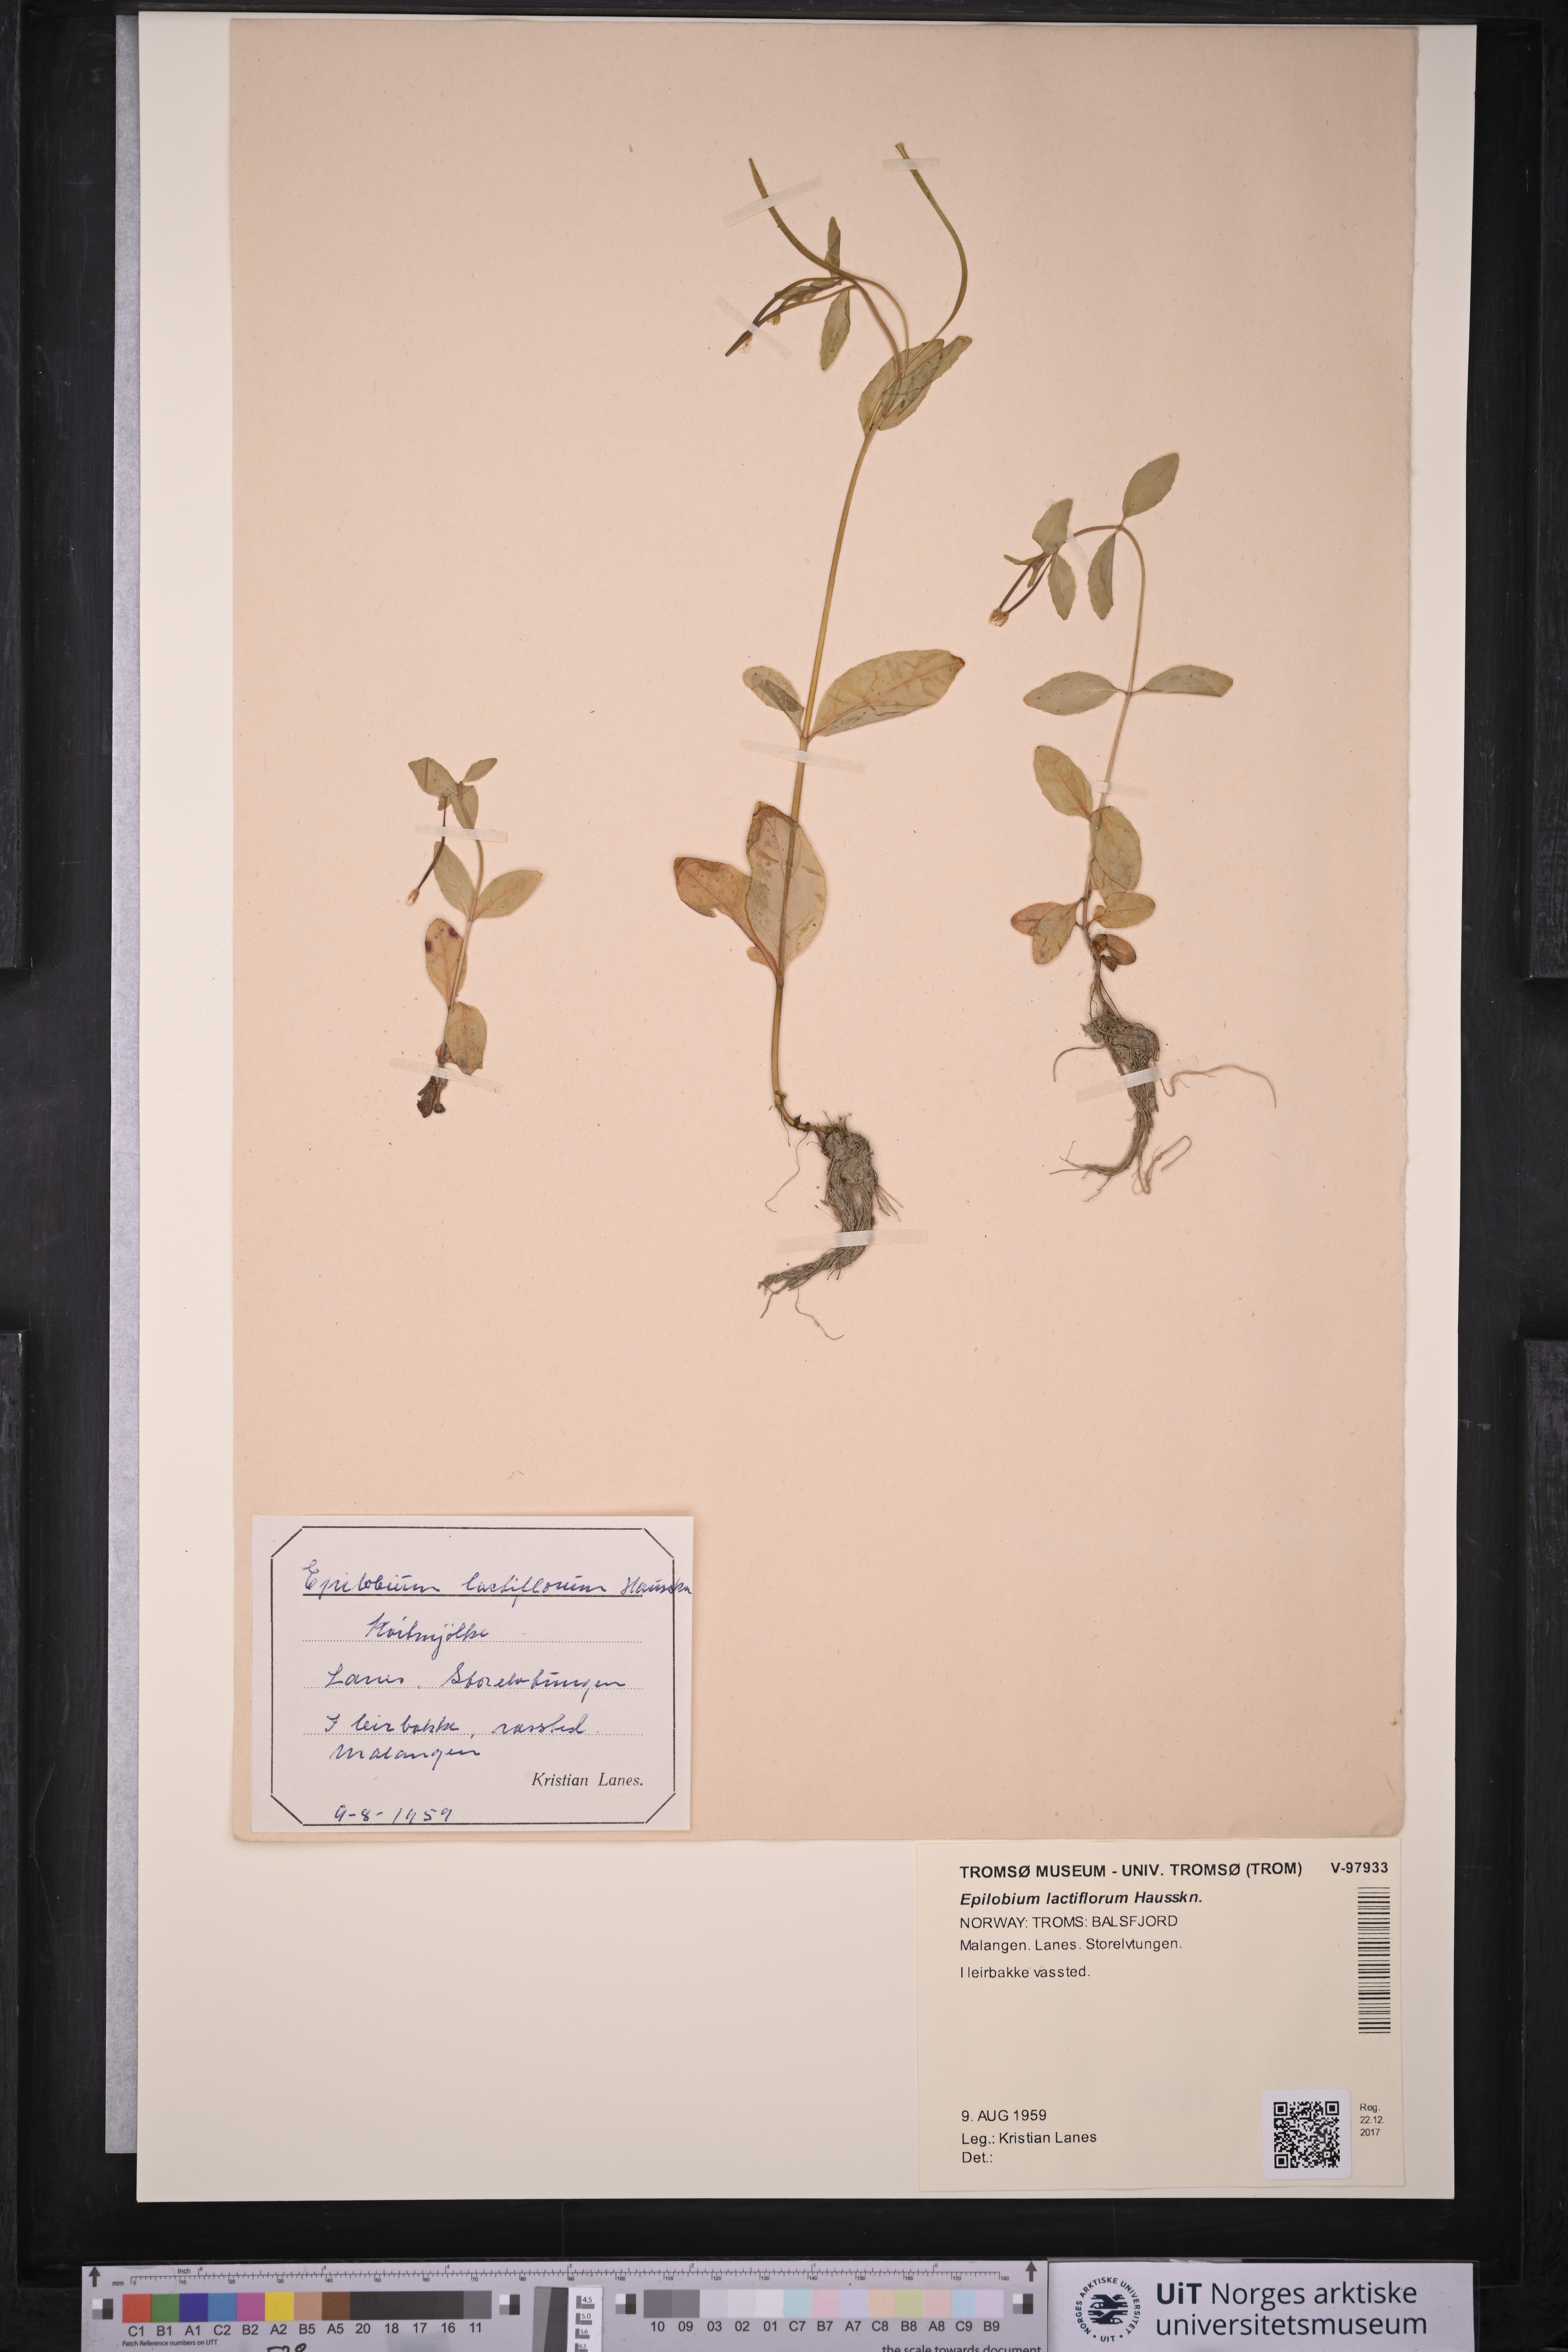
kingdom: Plantae
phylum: Tracheophyta
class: Magnoliopsida
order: Myrtales
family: Onagraceae
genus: Epilobium
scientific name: Epilobium lactiflorum
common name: Milkflower willowherb
